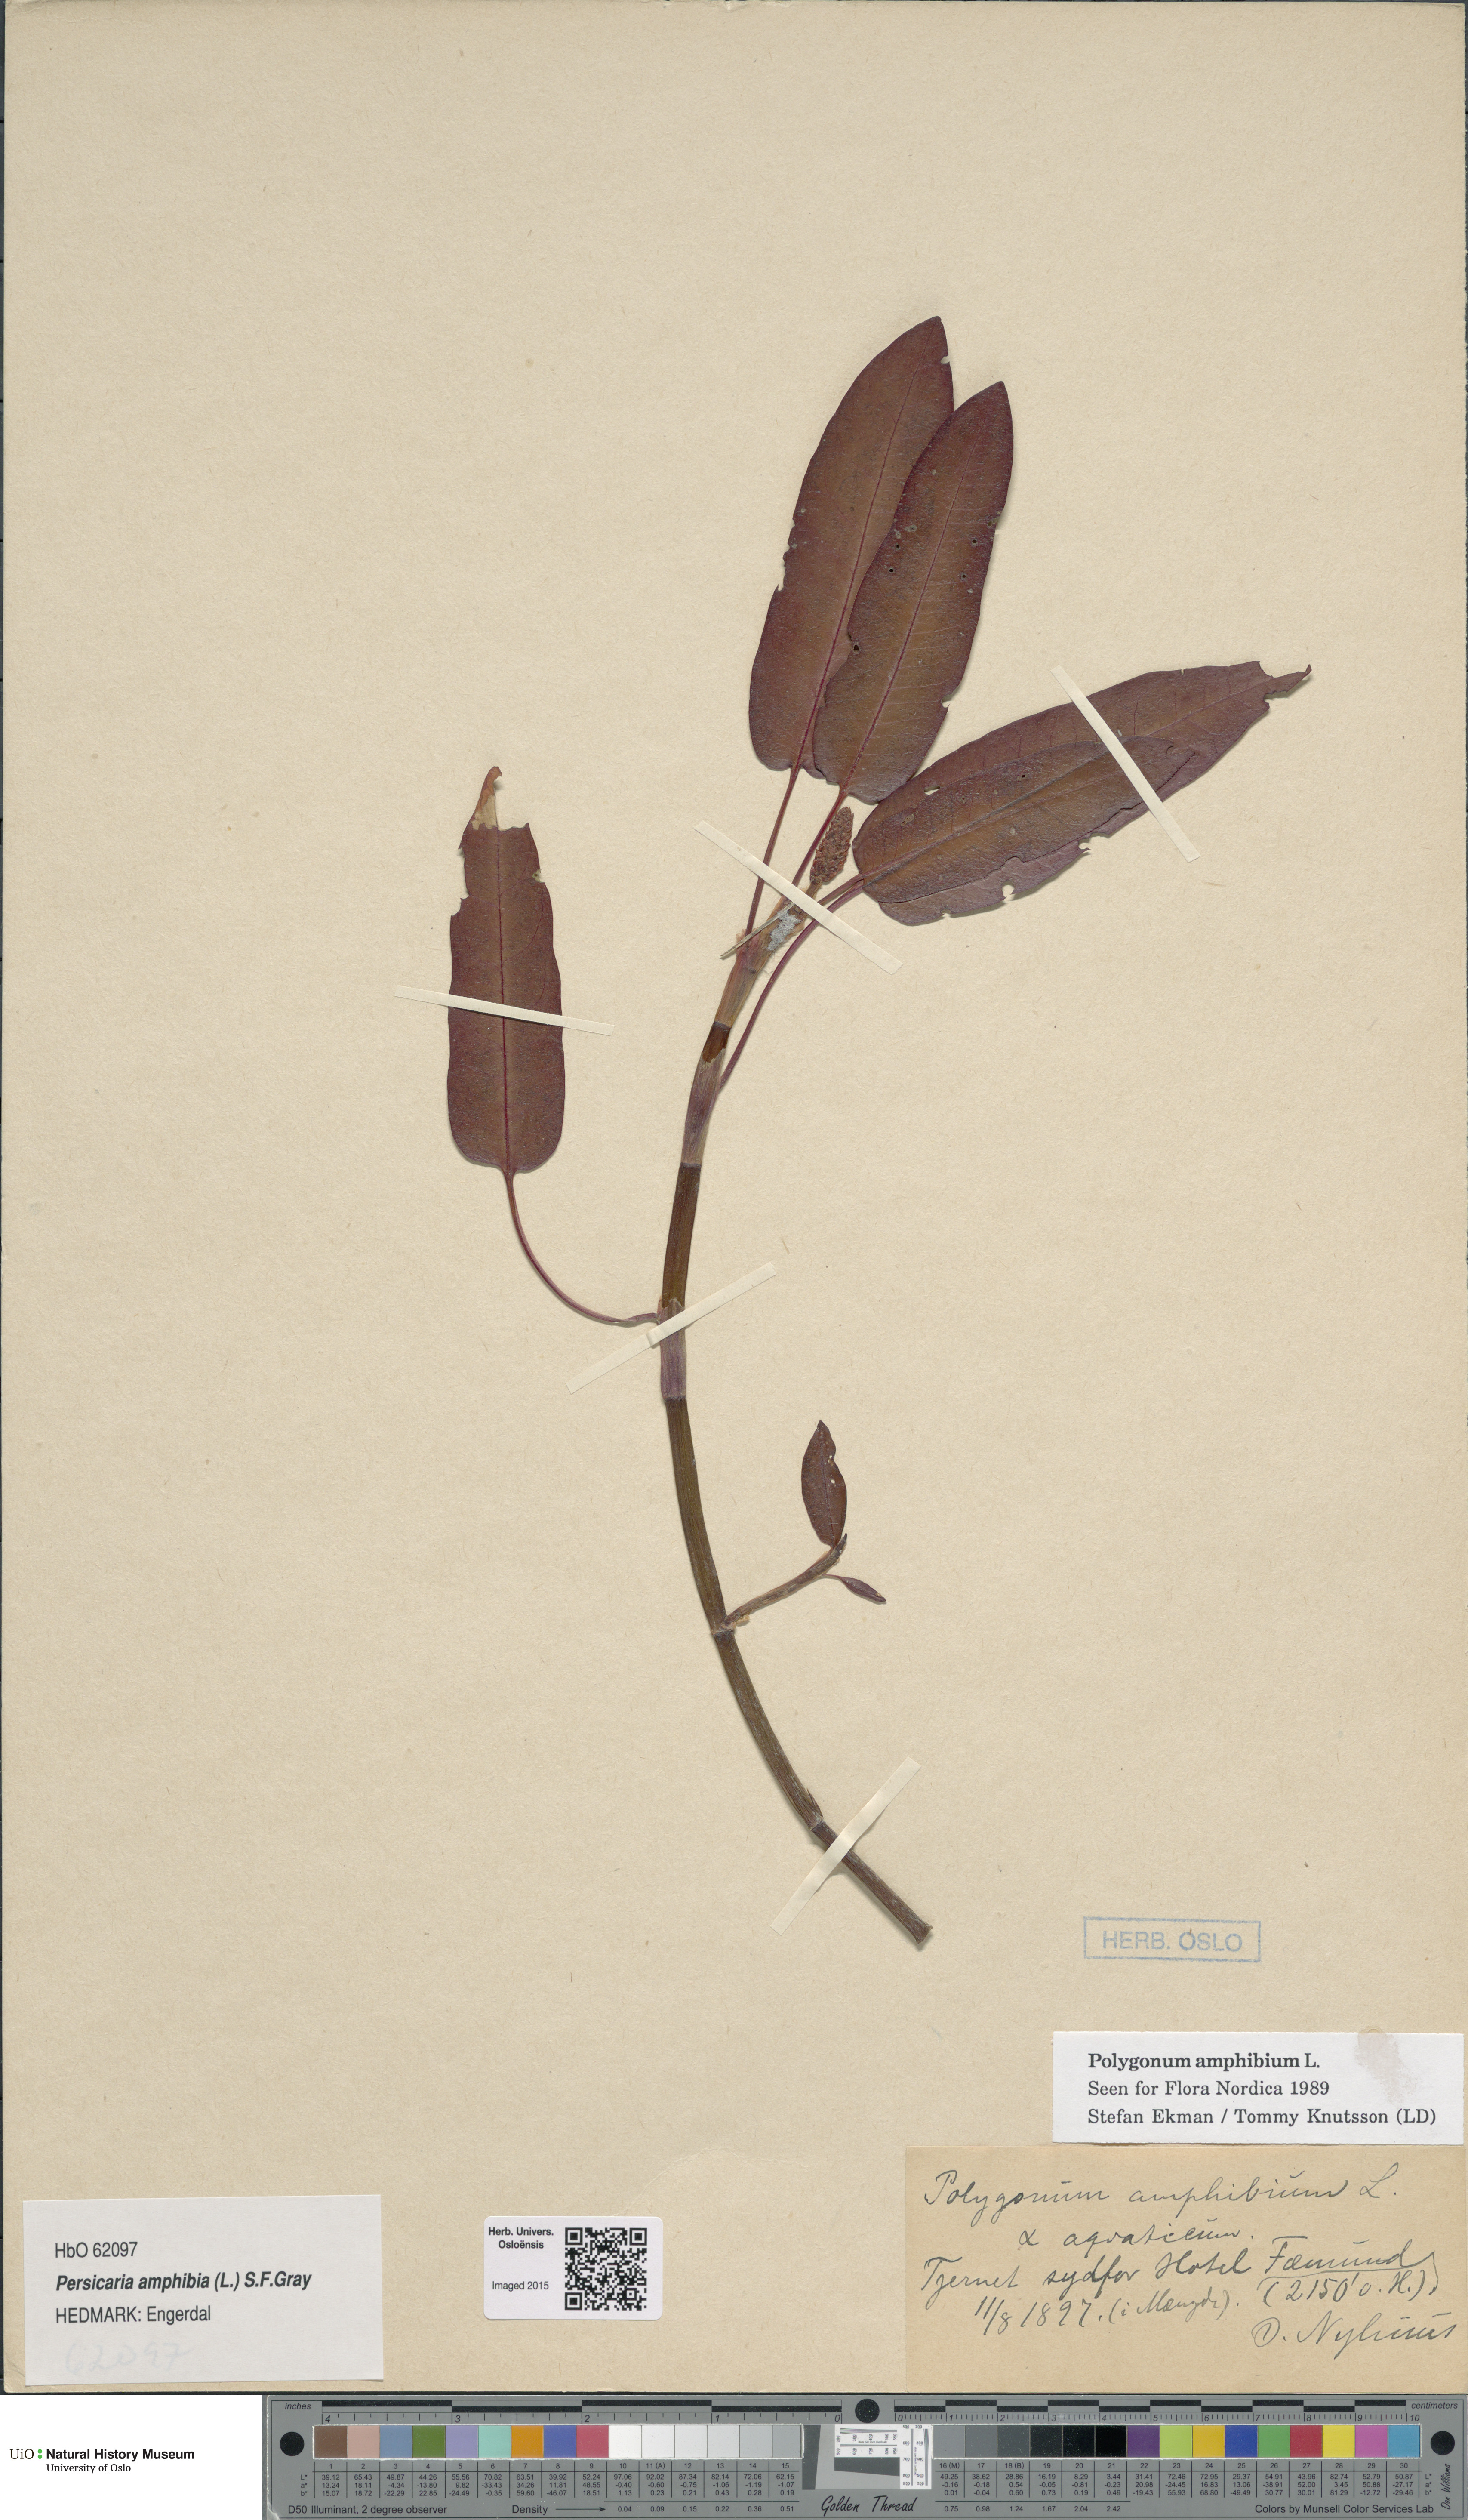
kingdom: Plantae
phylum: Tracheophyta
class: Magnoliopsida
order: Caryophyllales
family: Polygonaceae
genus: Persicaria
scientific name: Persicaria amphibia
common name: Amphibious bistort
